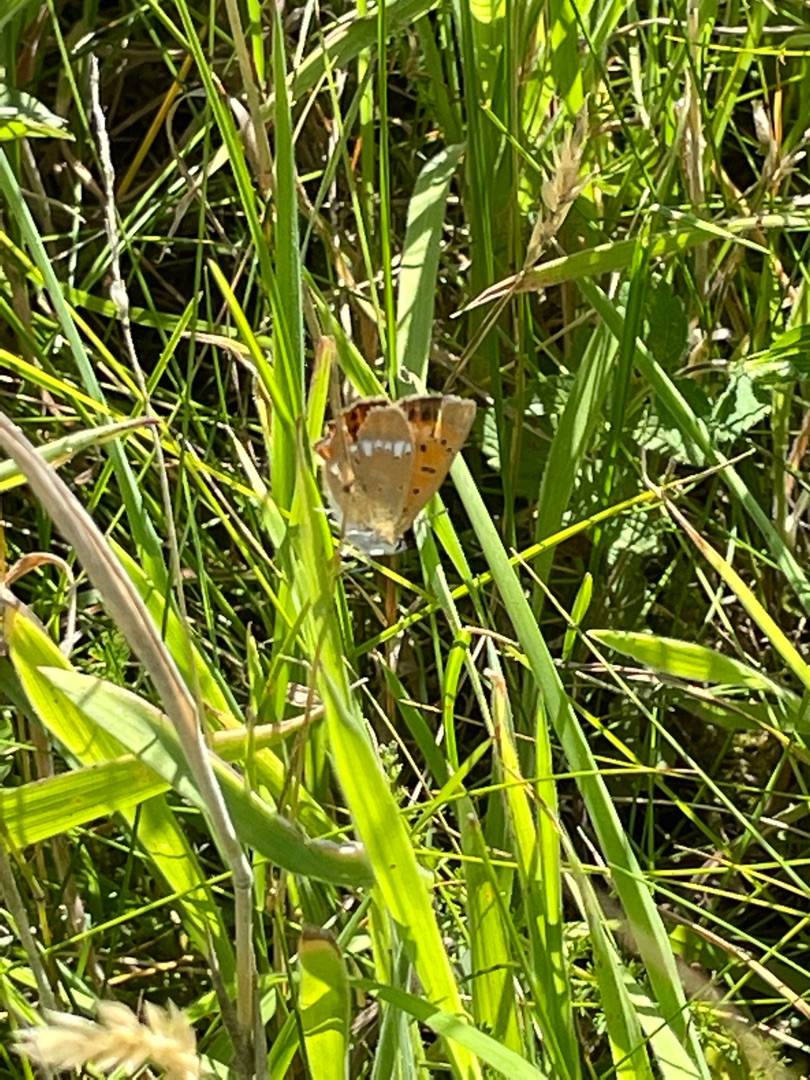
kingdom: Animalia
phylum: Arthropoda
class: Insecta
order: Lepidoptera
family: Lycaenidae
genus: Lycaena
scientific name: Lycaena virgaureae
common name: Dukatsommerfugl
